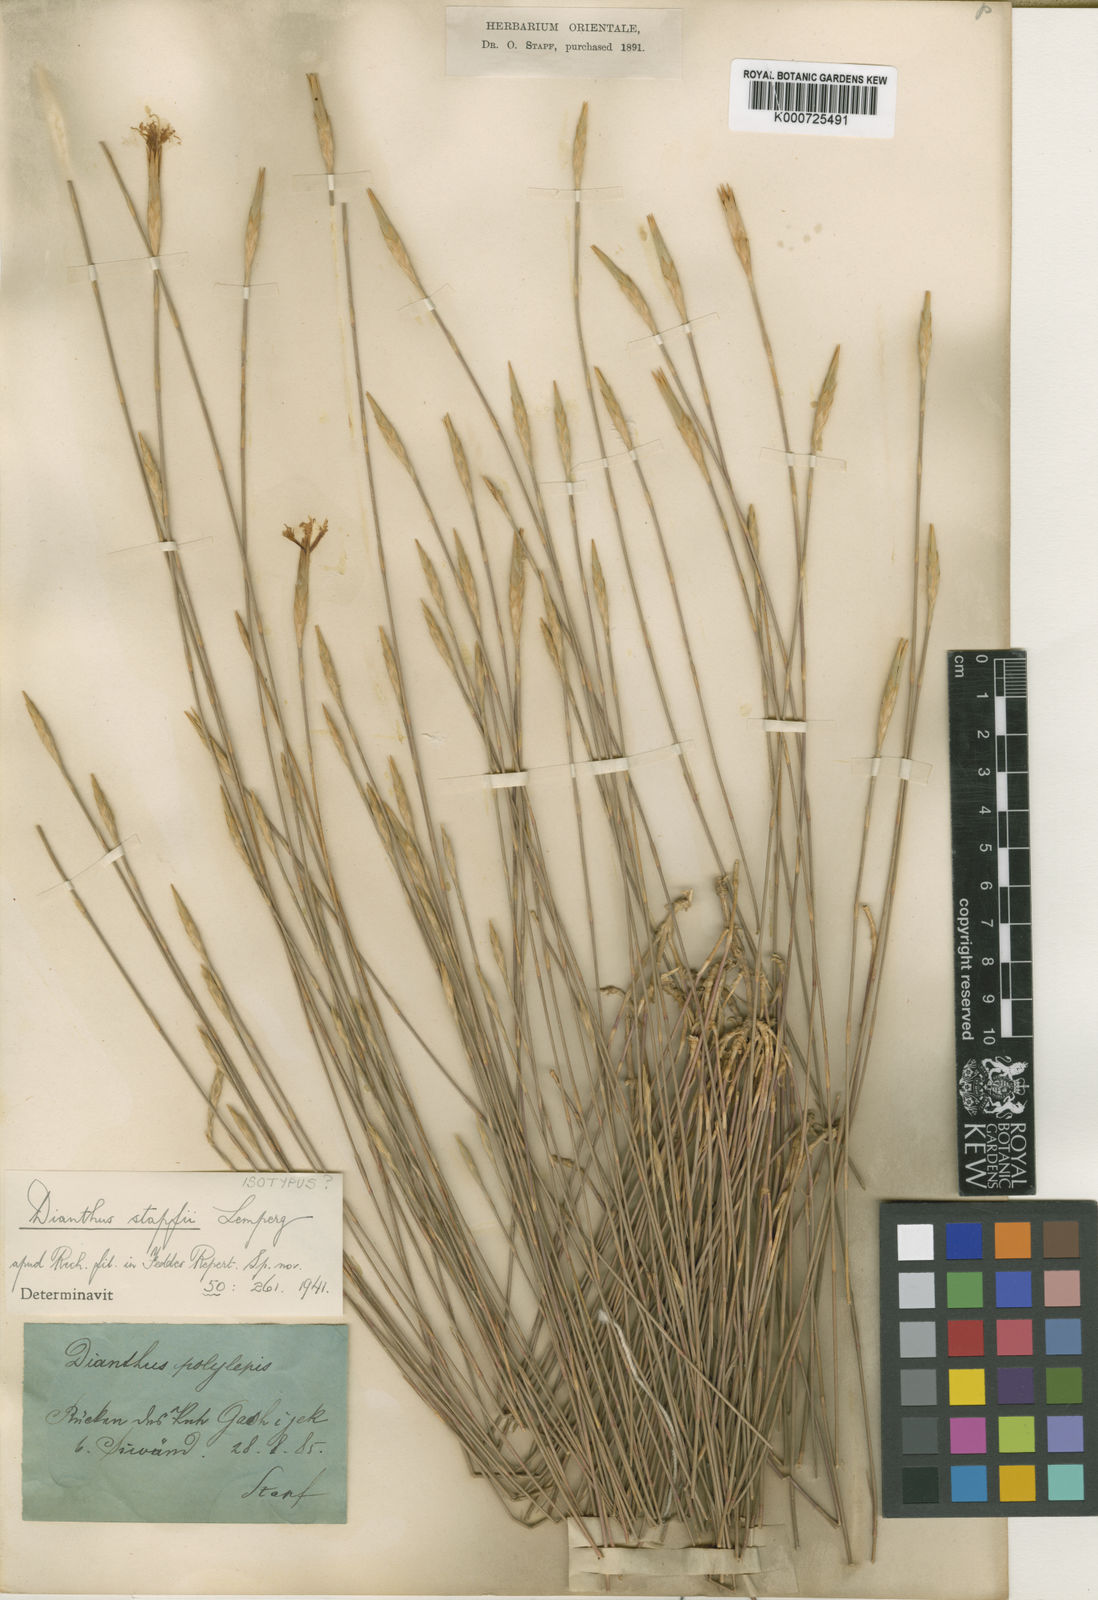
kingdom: Plantae
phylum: Tracheophyta
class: Magnoliopsida
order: Caryophyllales
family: Caryophyllaceae
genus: Dianthus
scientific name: Dianthus stapfii
